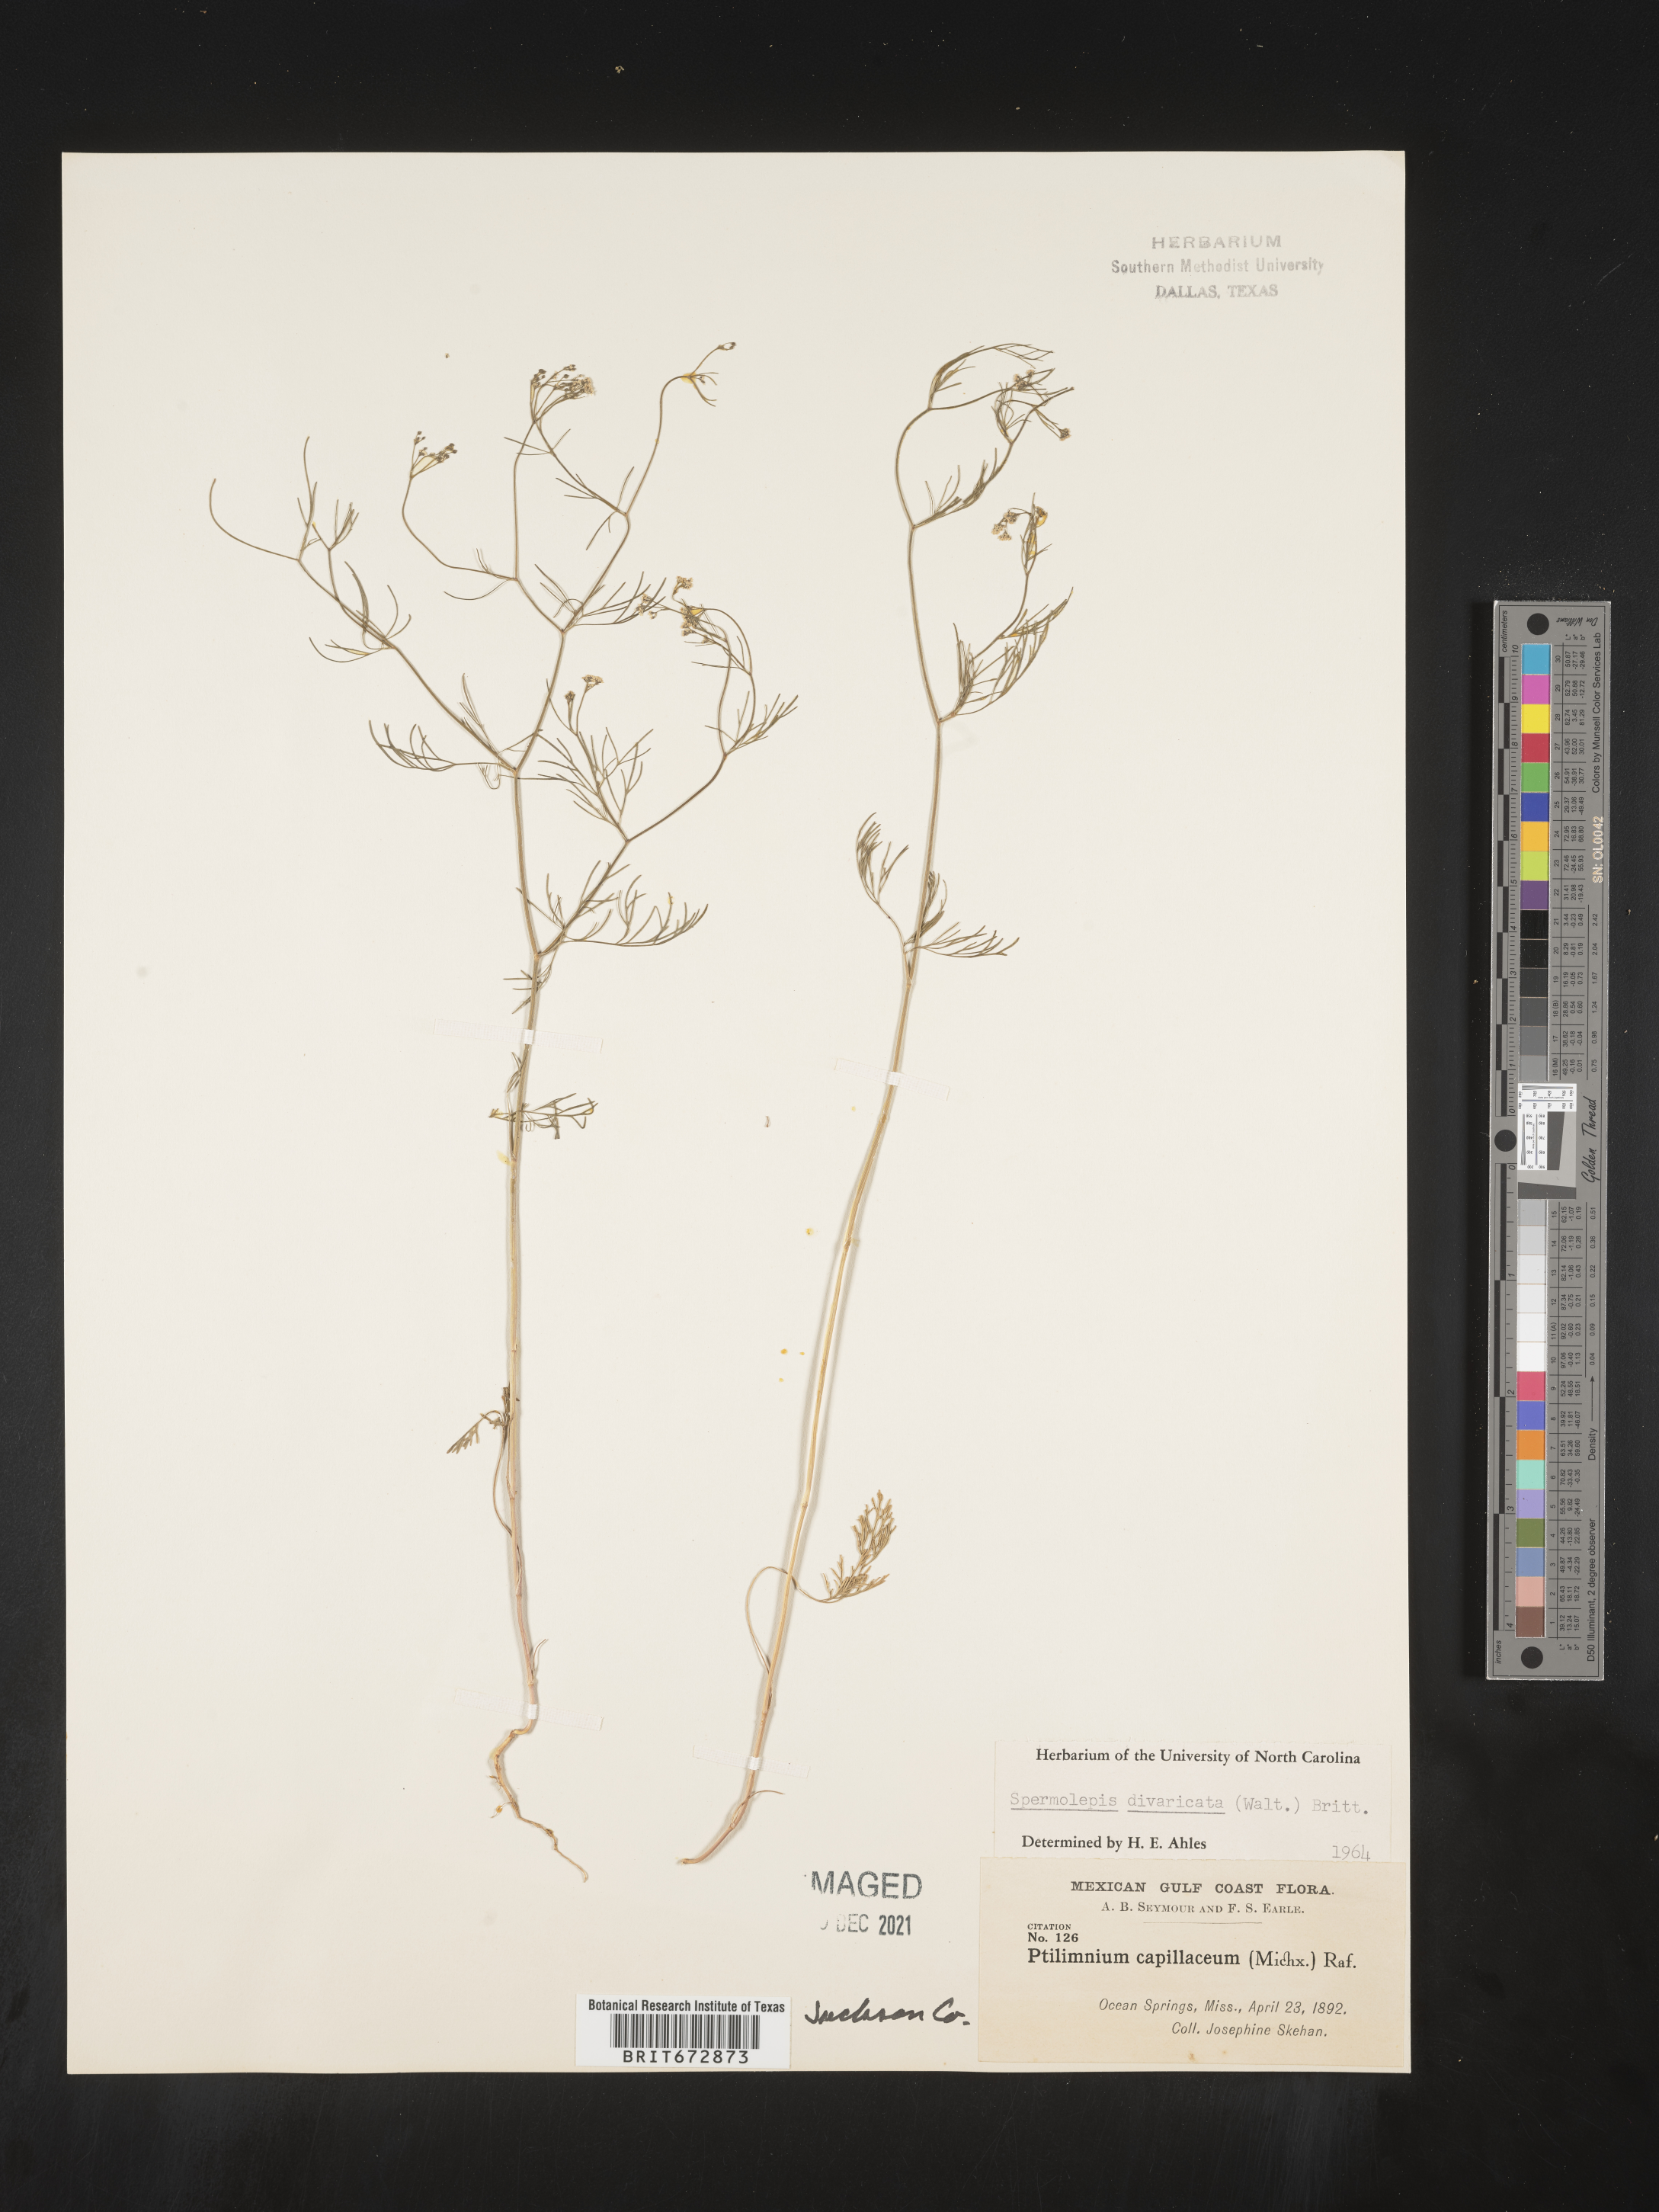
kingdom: Plantae
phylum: Tracheophyta
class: Magnoliopsida
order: Apiales
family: Apiaceae
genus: Spermolepis
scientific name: Spermolepis divaricata
